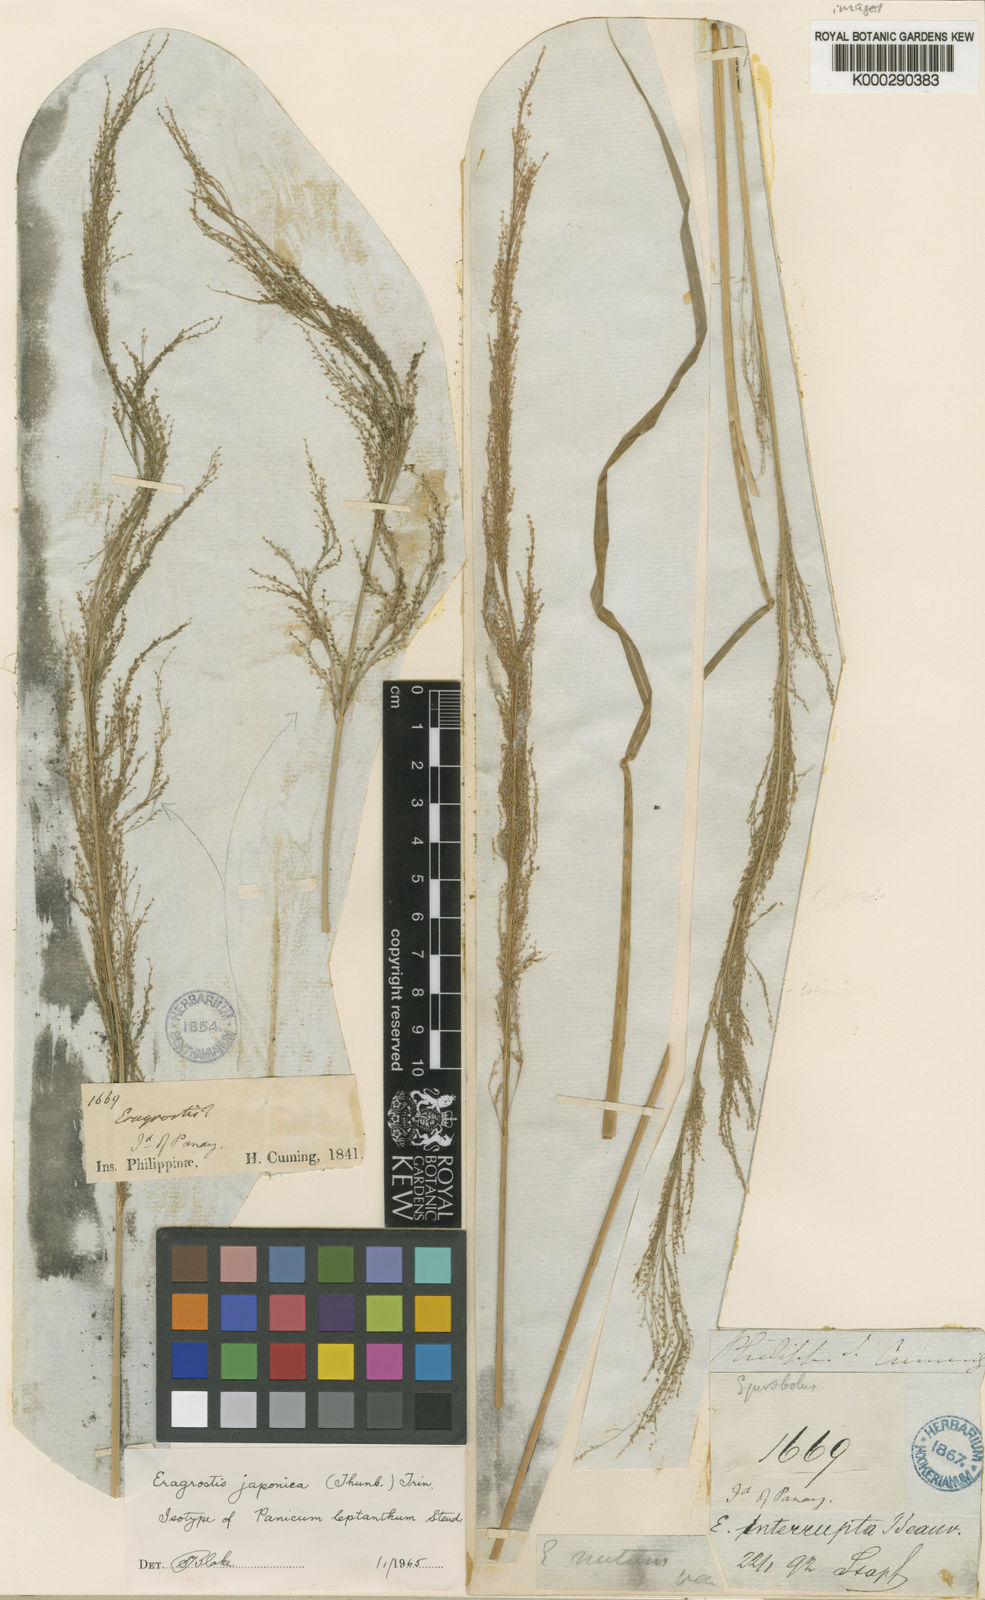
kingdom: Plantae
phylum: Tracheophyta
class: Liliopsida
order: Poales
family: Poaceae
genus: Eragrostis
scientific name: Eragrostis japonica
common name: Pond lovegrass
